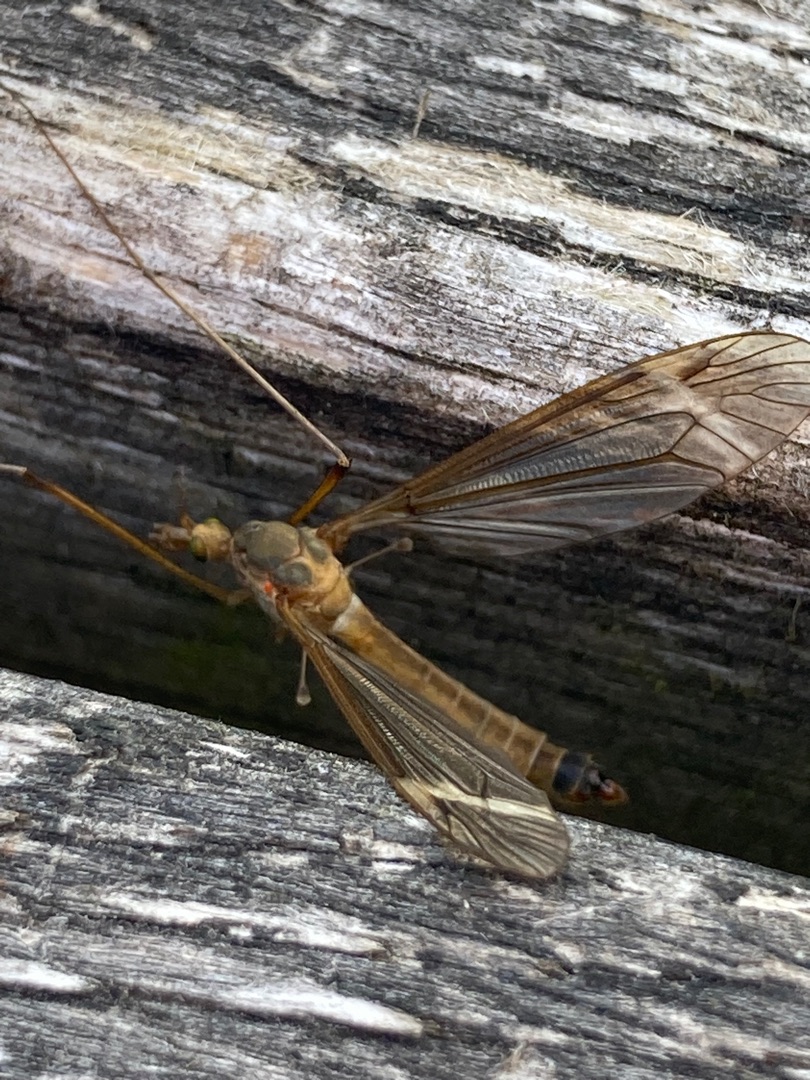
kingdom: Animalia
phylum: Arthropoda
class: Insecta
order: Diptera
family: Tipulidae
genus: Tipula
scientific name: Tipula fascipennis
